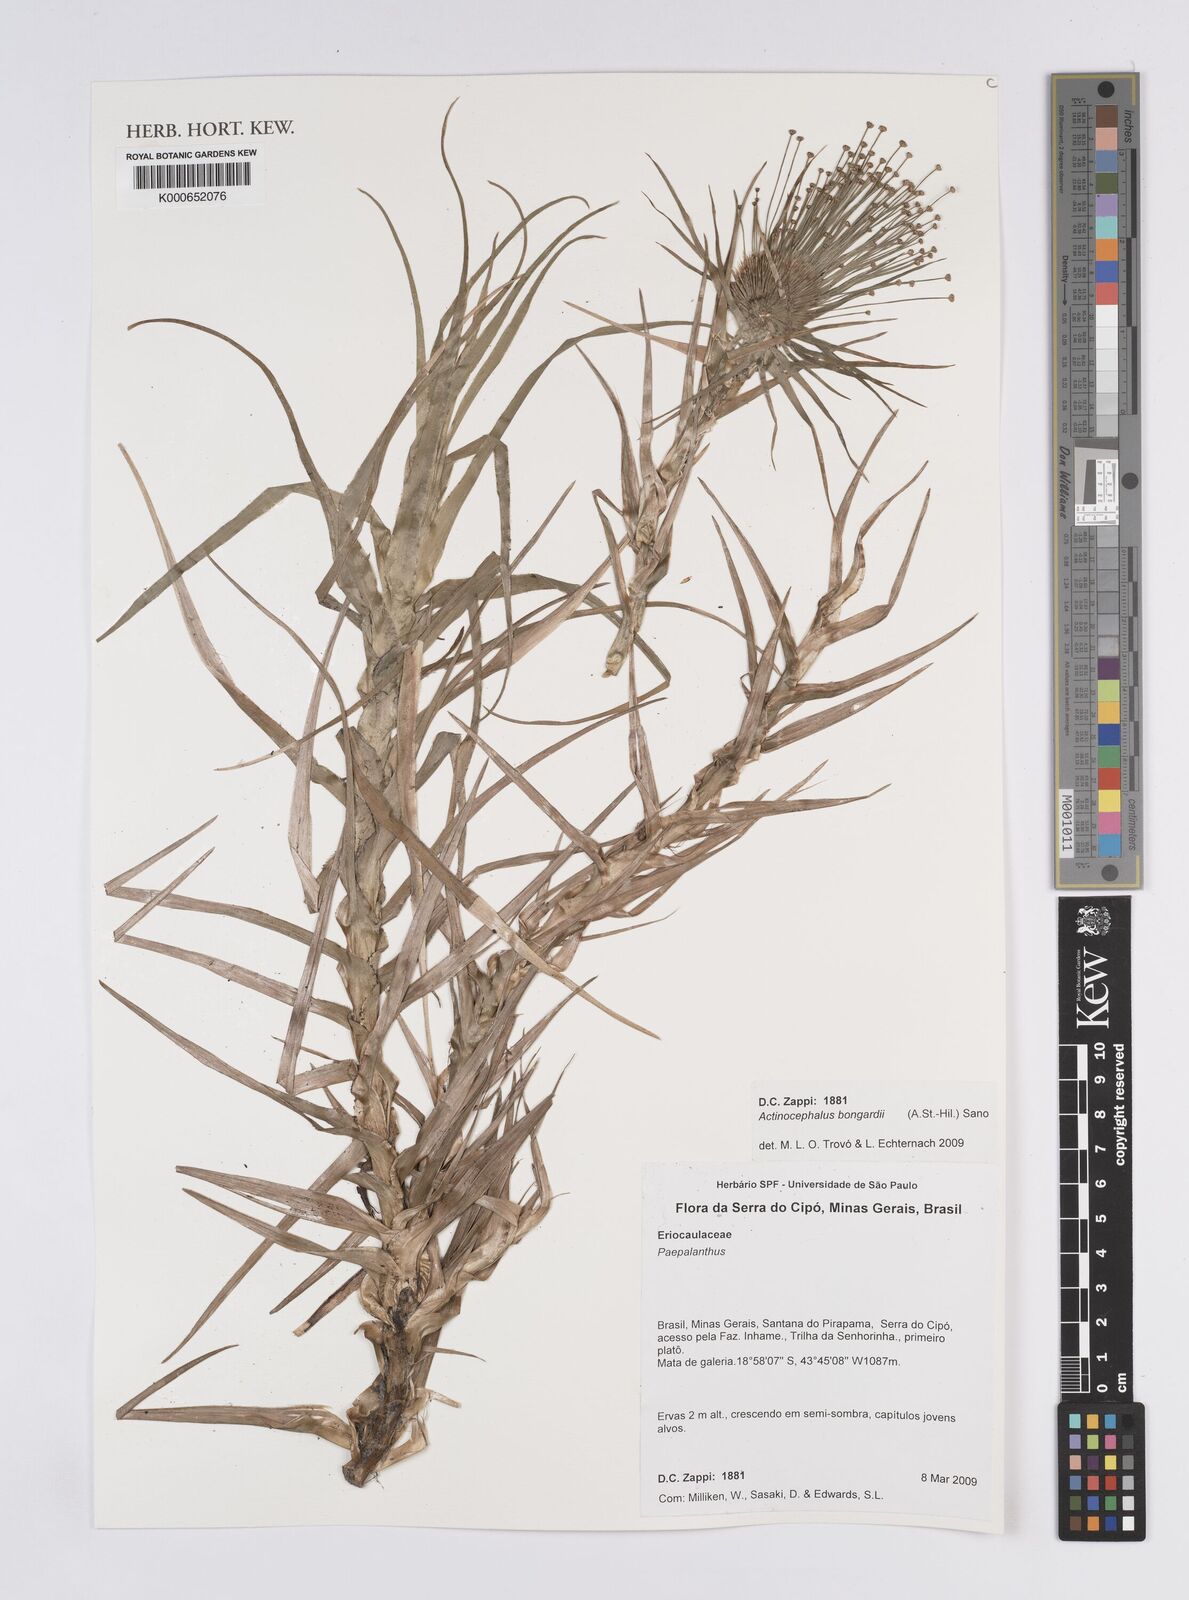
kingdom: Plantae
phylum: Tracheophyta
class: Liliopsida
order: Poales
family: Eriocaulaceae
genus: Paepalanthus
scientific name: Paepalanthus hilairei
